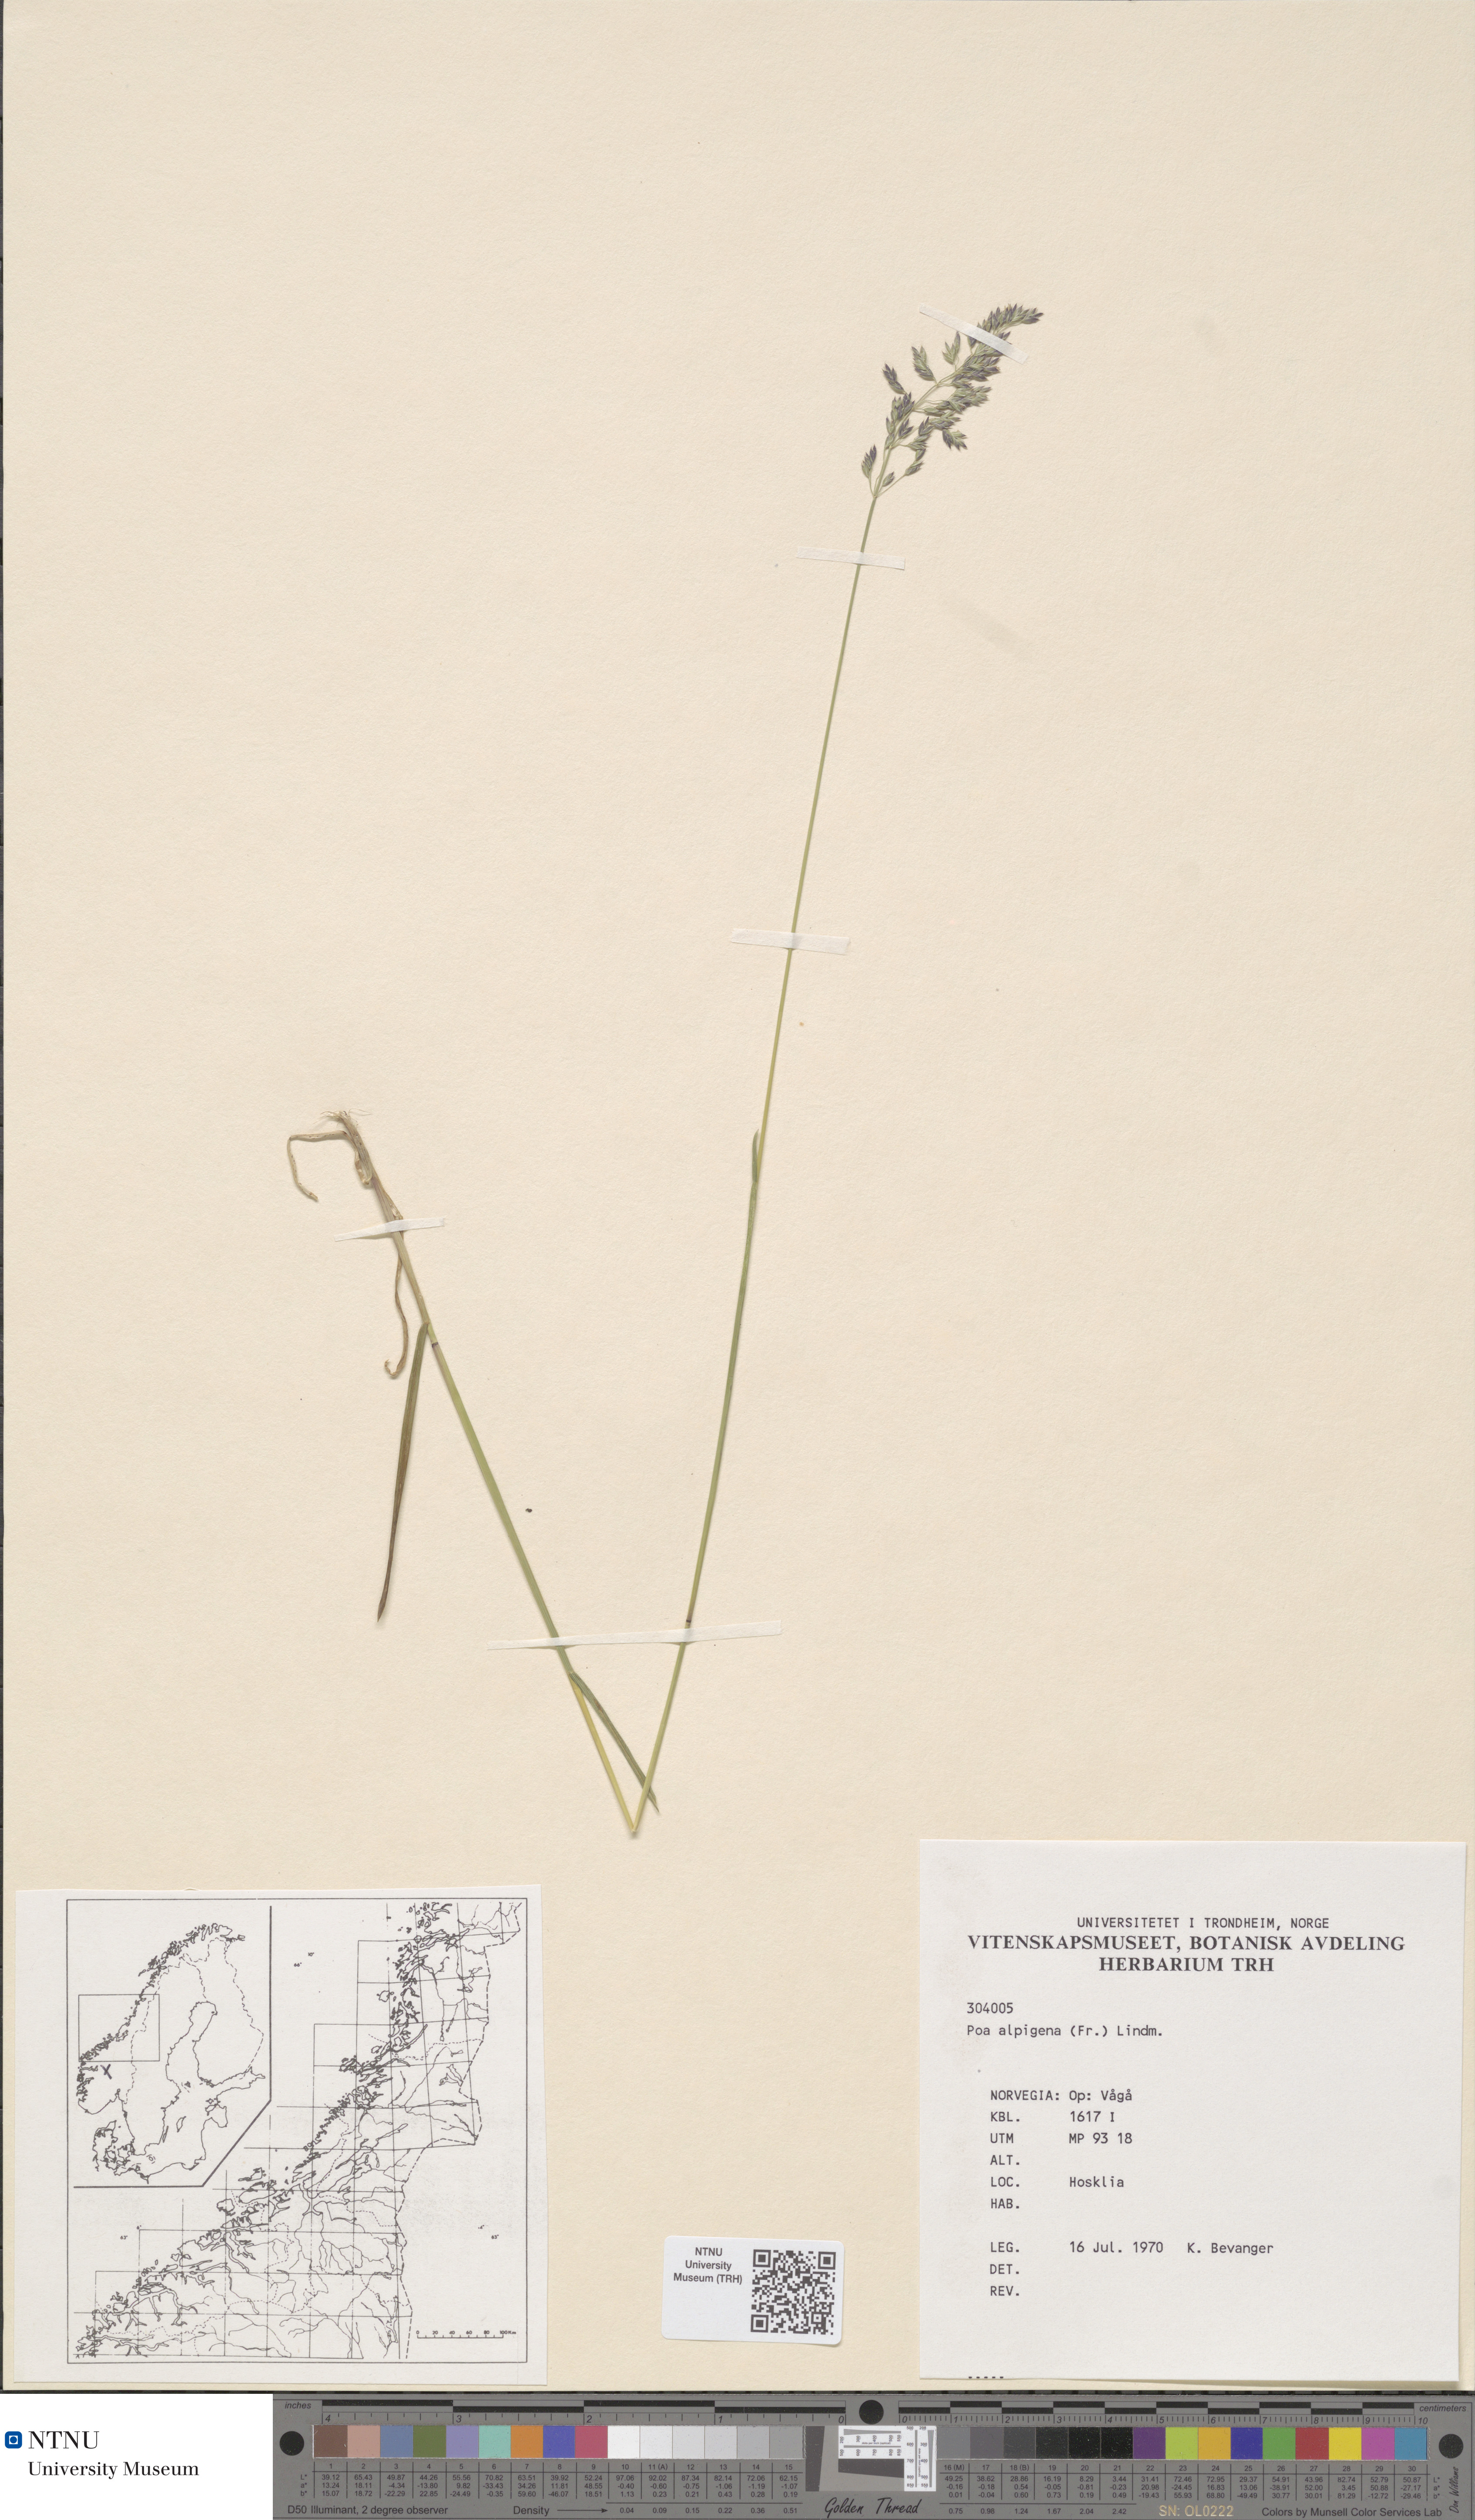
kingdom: Plantae
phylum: Tracheophyta
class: Liliopsida
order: Poales
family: Poaceae
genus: Poa
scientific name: Poa alpigena
